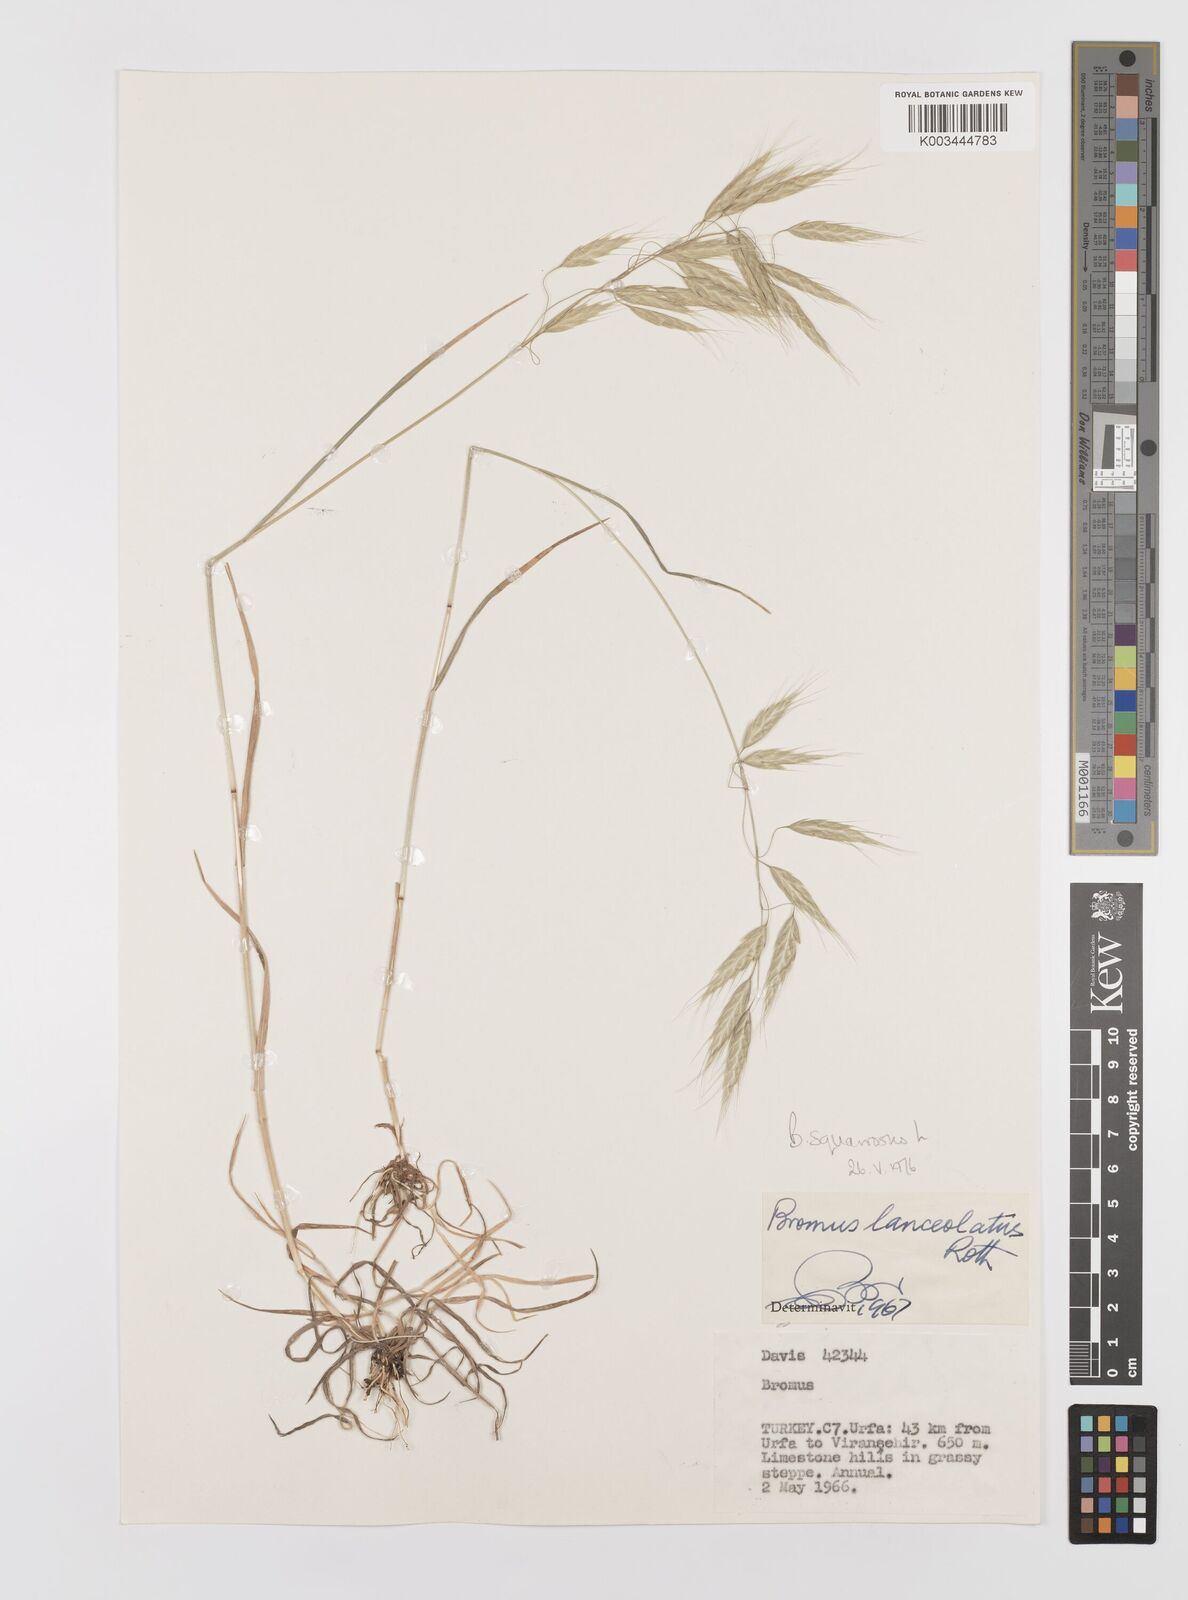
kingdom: Plantae
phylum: Tracheophyta
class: Liliopsida
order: Poales
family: Poaceae
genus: Bromus
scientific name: Bromus squarrosus
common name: Corn brome
